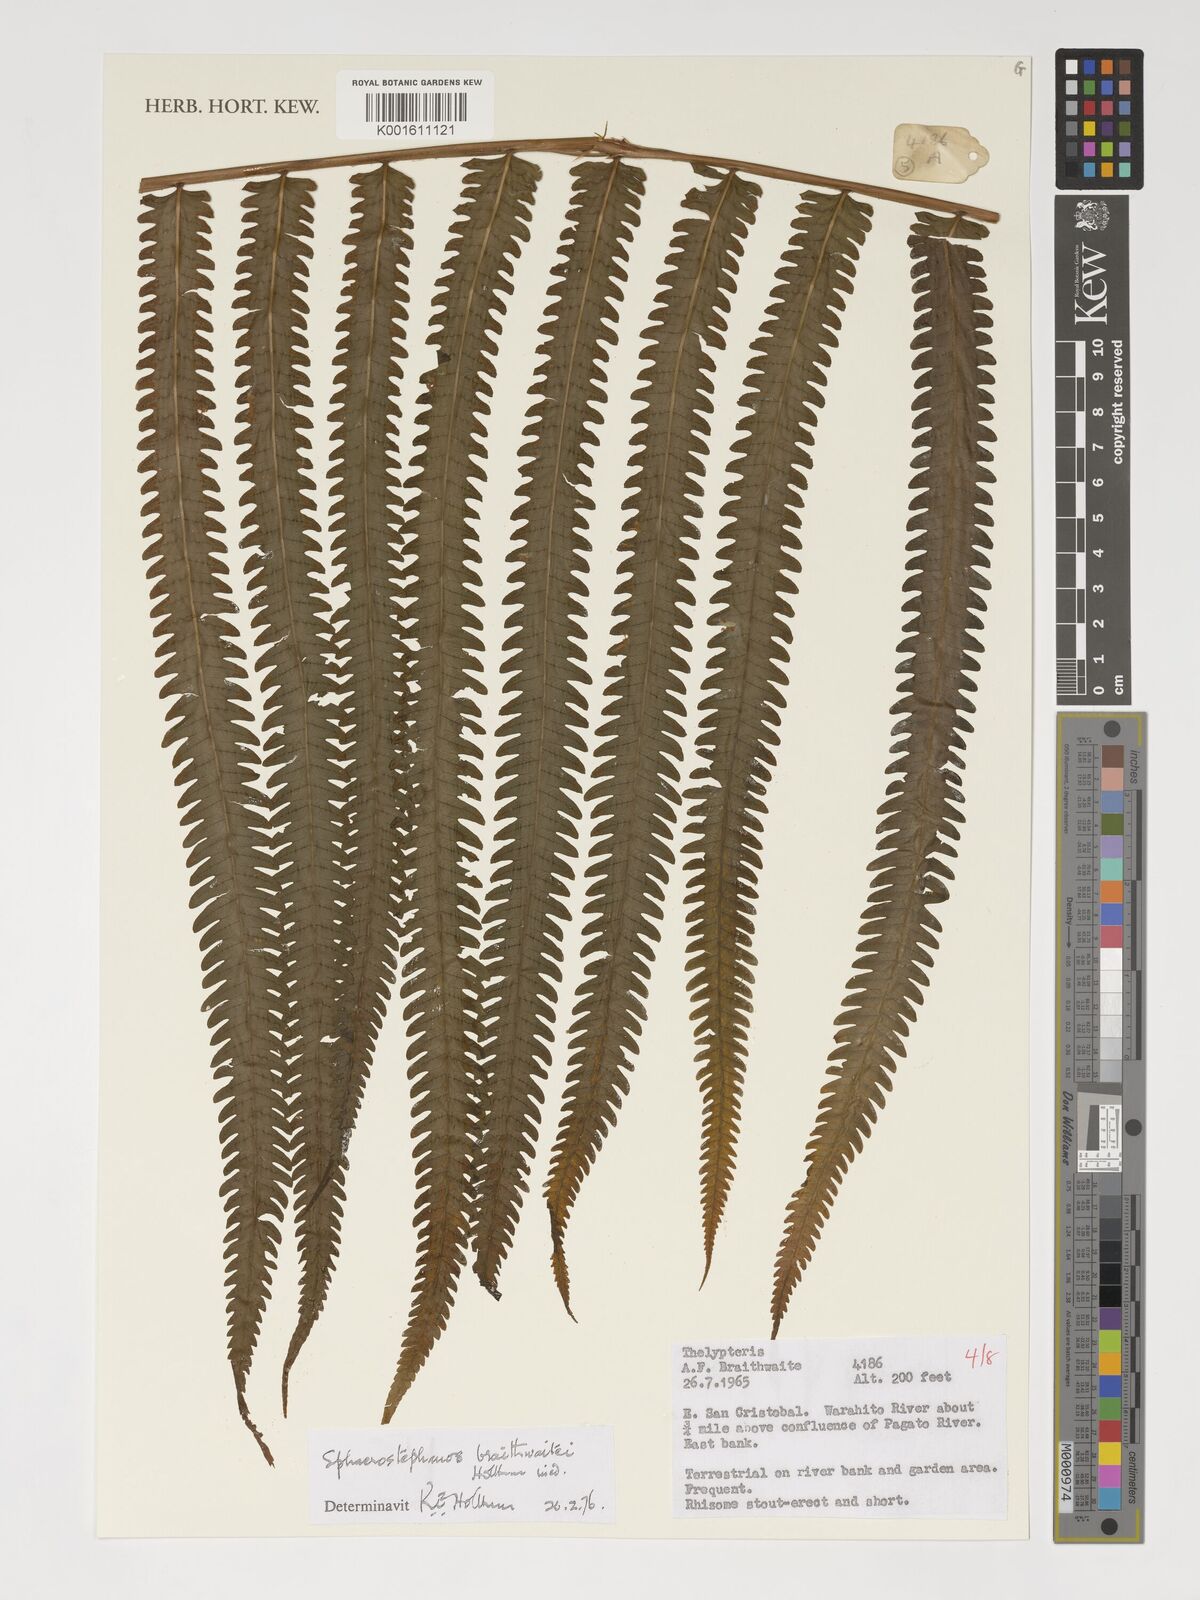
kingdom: Plantae
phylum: Tracheophyta
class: Polypodiopsida
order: Polypodiales
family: Thelypteridaceae
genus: Sphaerostephanos
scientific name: Sphaerostephanos braithwaitei
